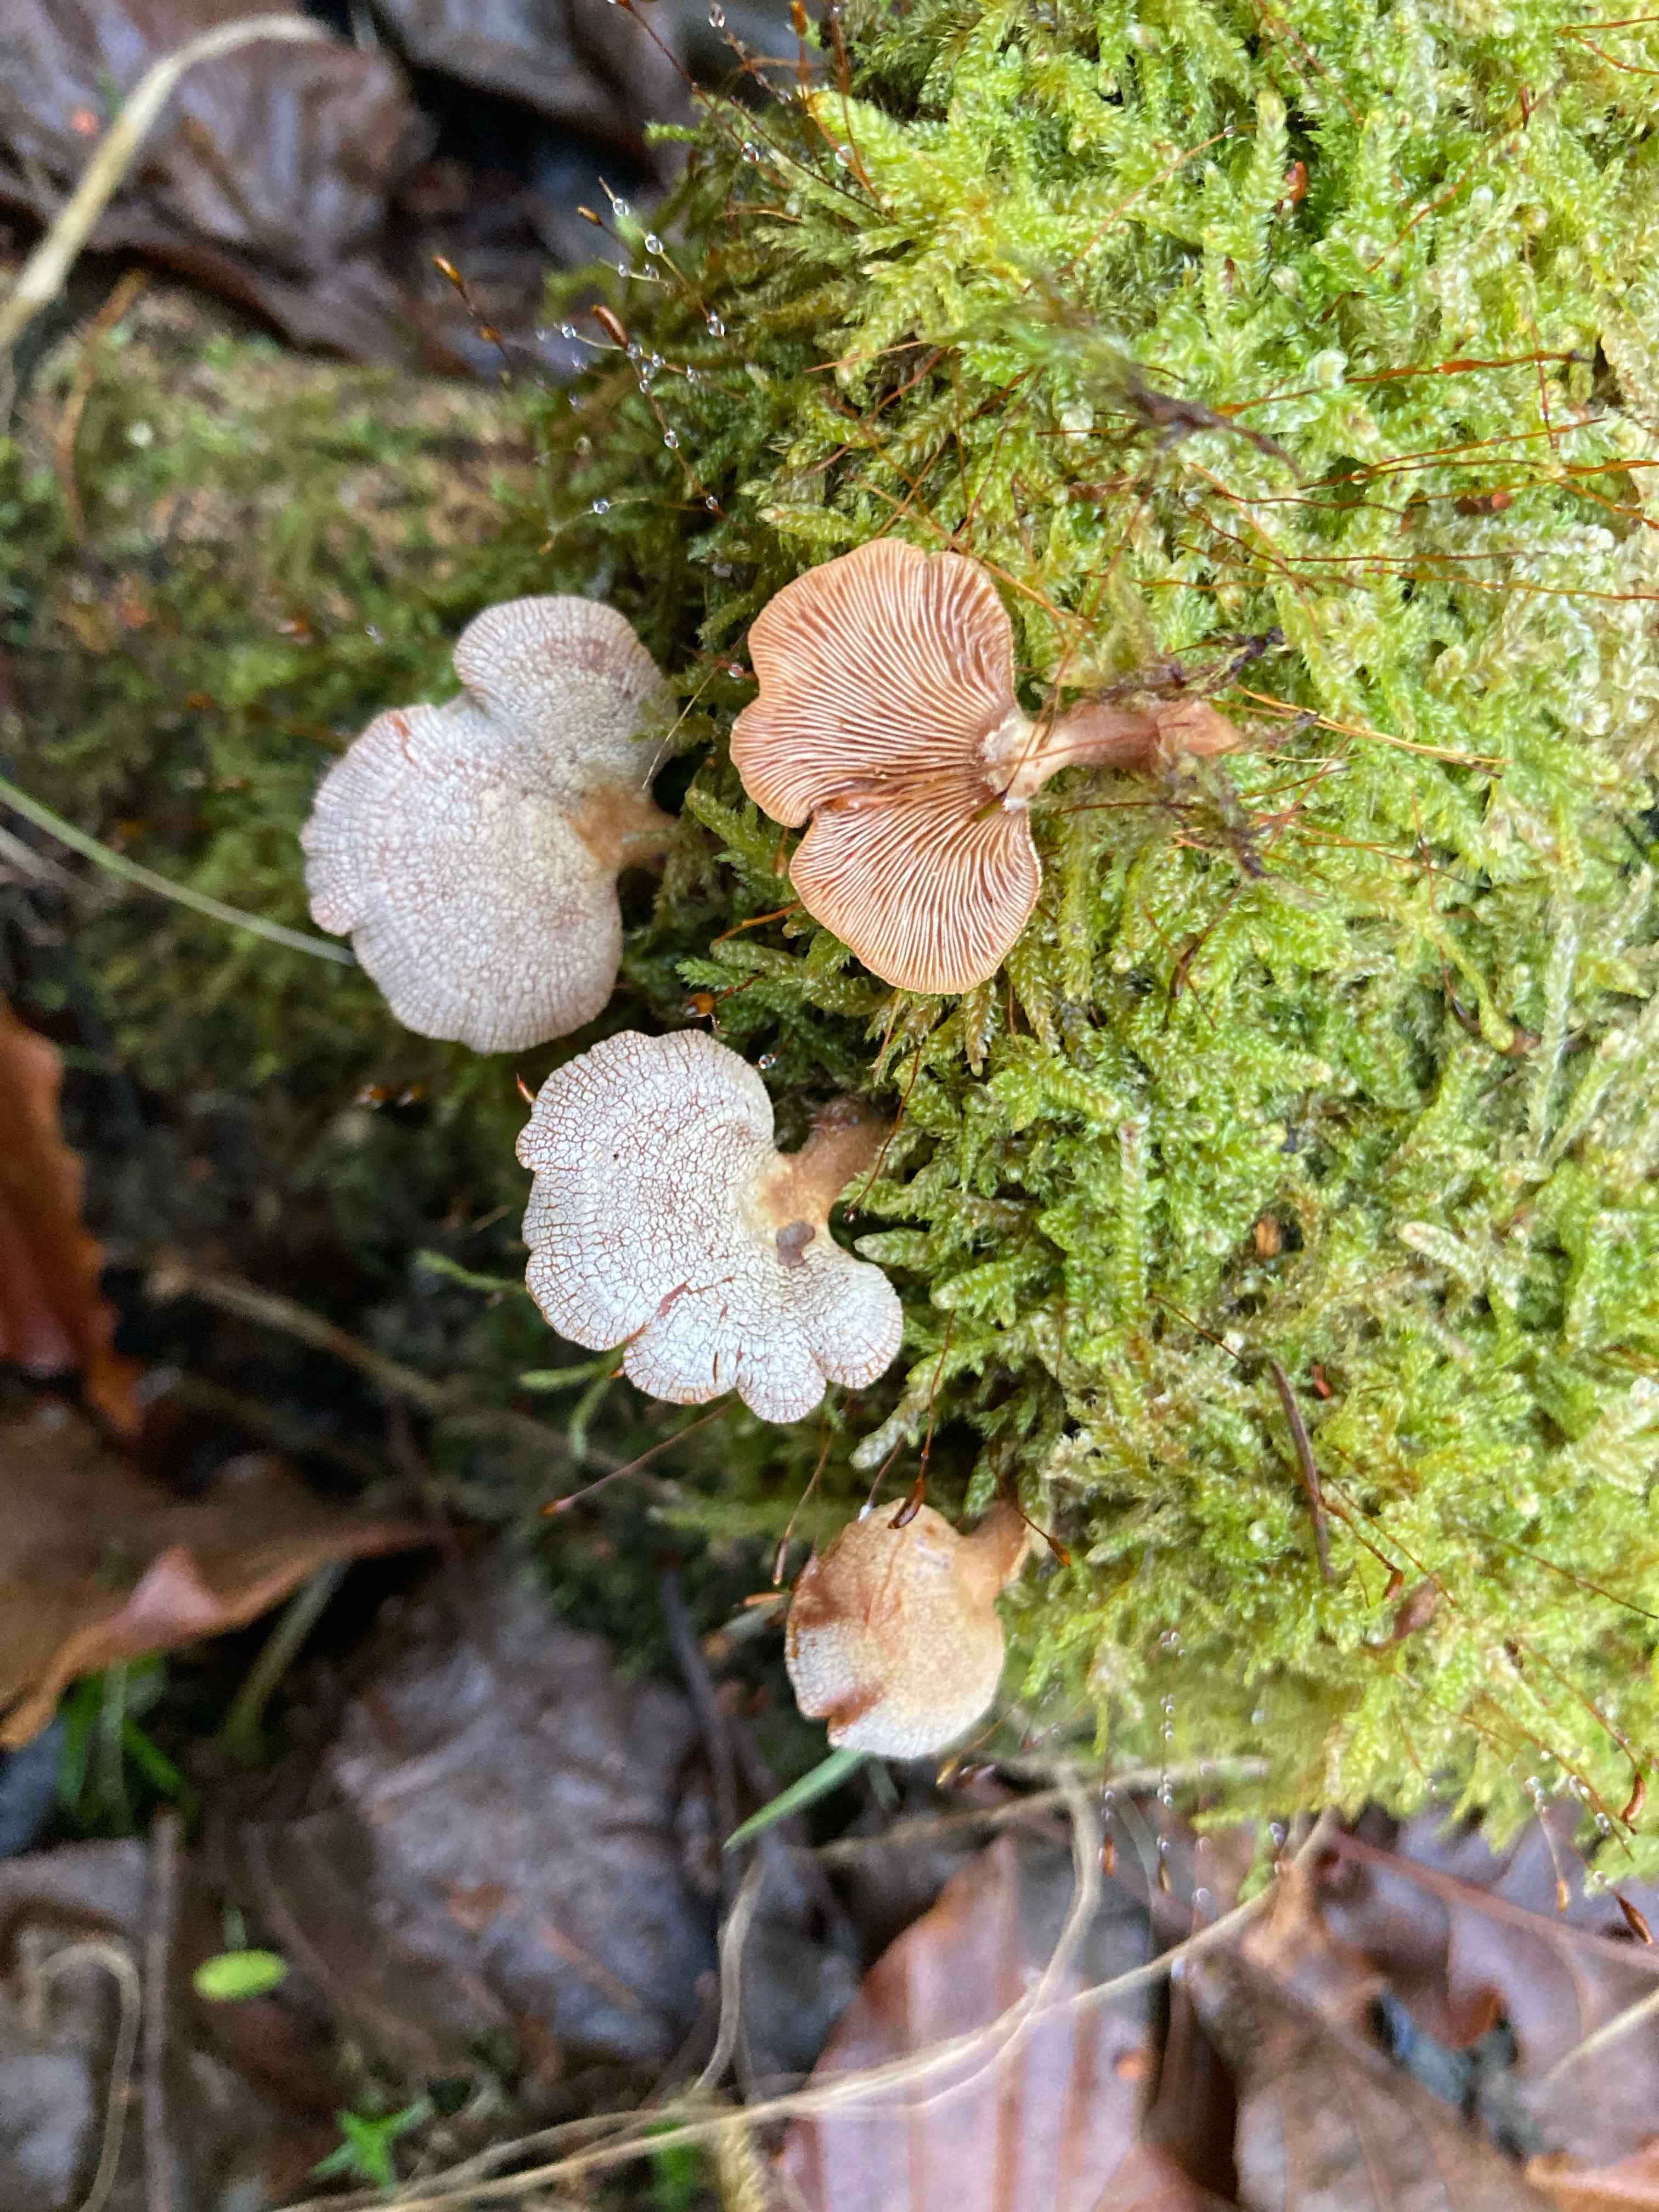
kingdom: Fungi
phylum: Basidiomycota
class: Agaricomycetes
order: Agaricales
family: Mycenaceae
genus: Panellus
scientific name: Panellus stipticus
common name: kliddet epaulethat
